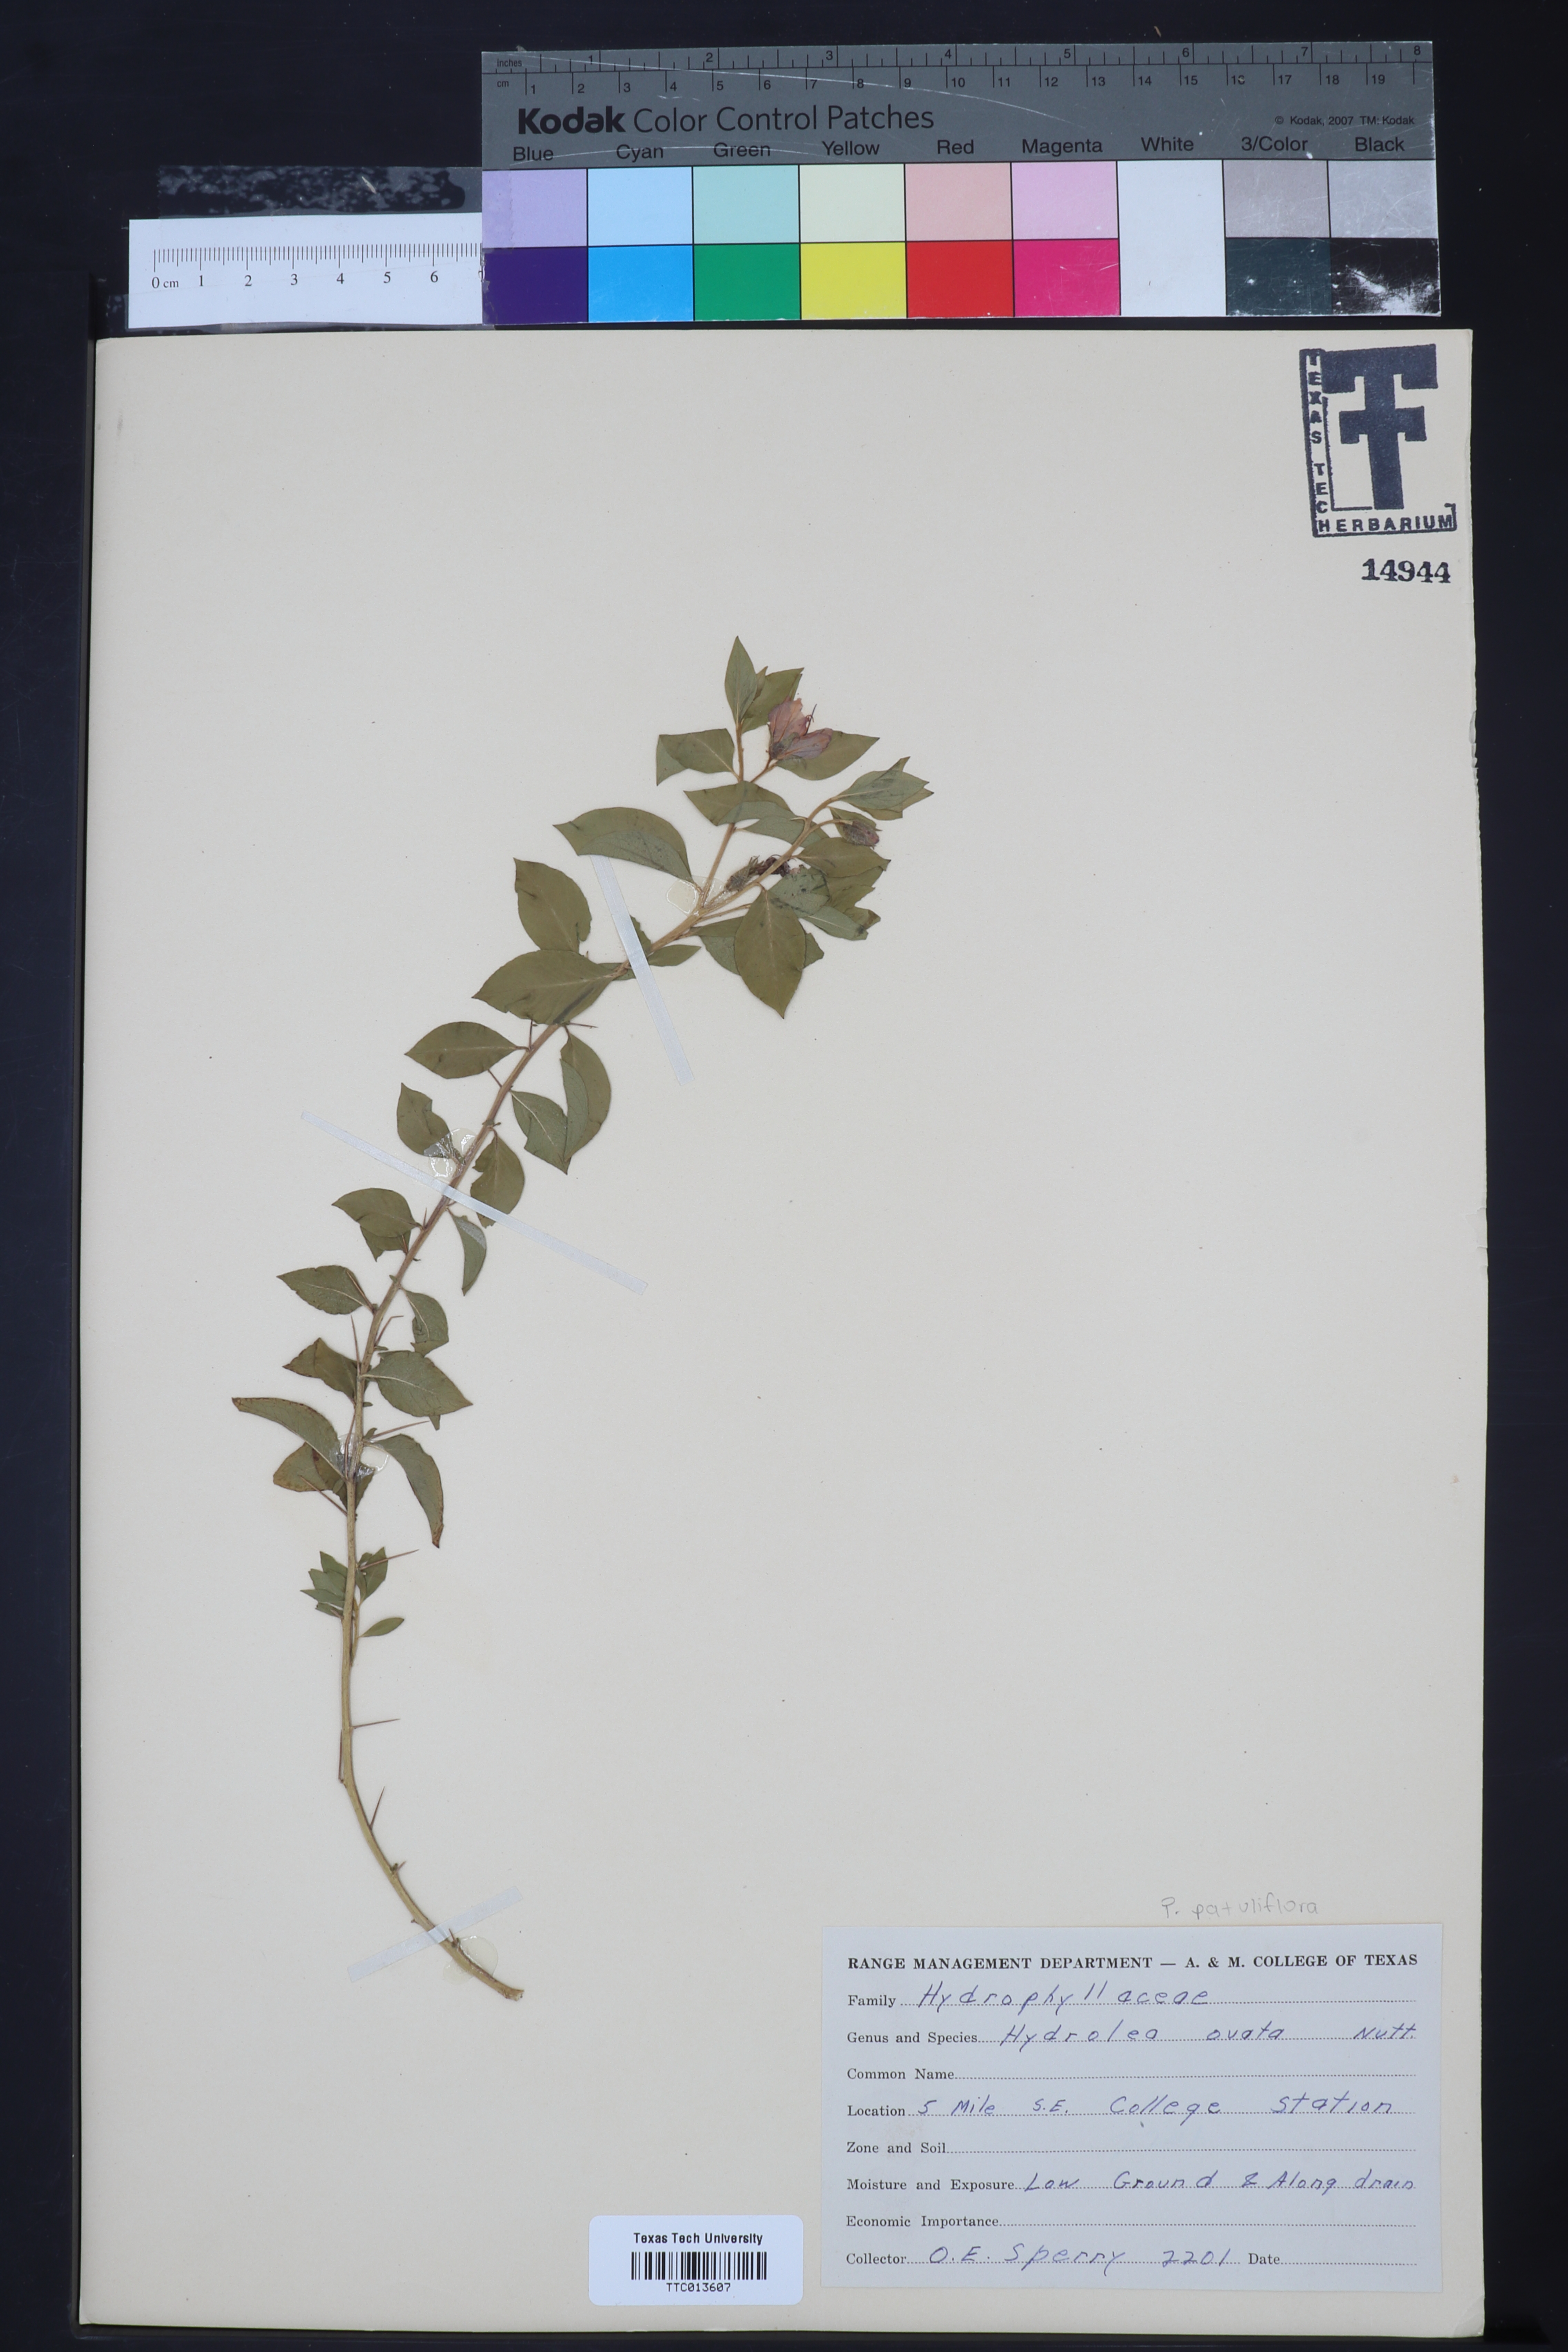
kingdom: Plantae
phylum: Tracheophyta
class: Magnoliopsida
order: Boraginales
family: Hydrophyllaceae
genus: Phacelia
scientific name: Phacelia
